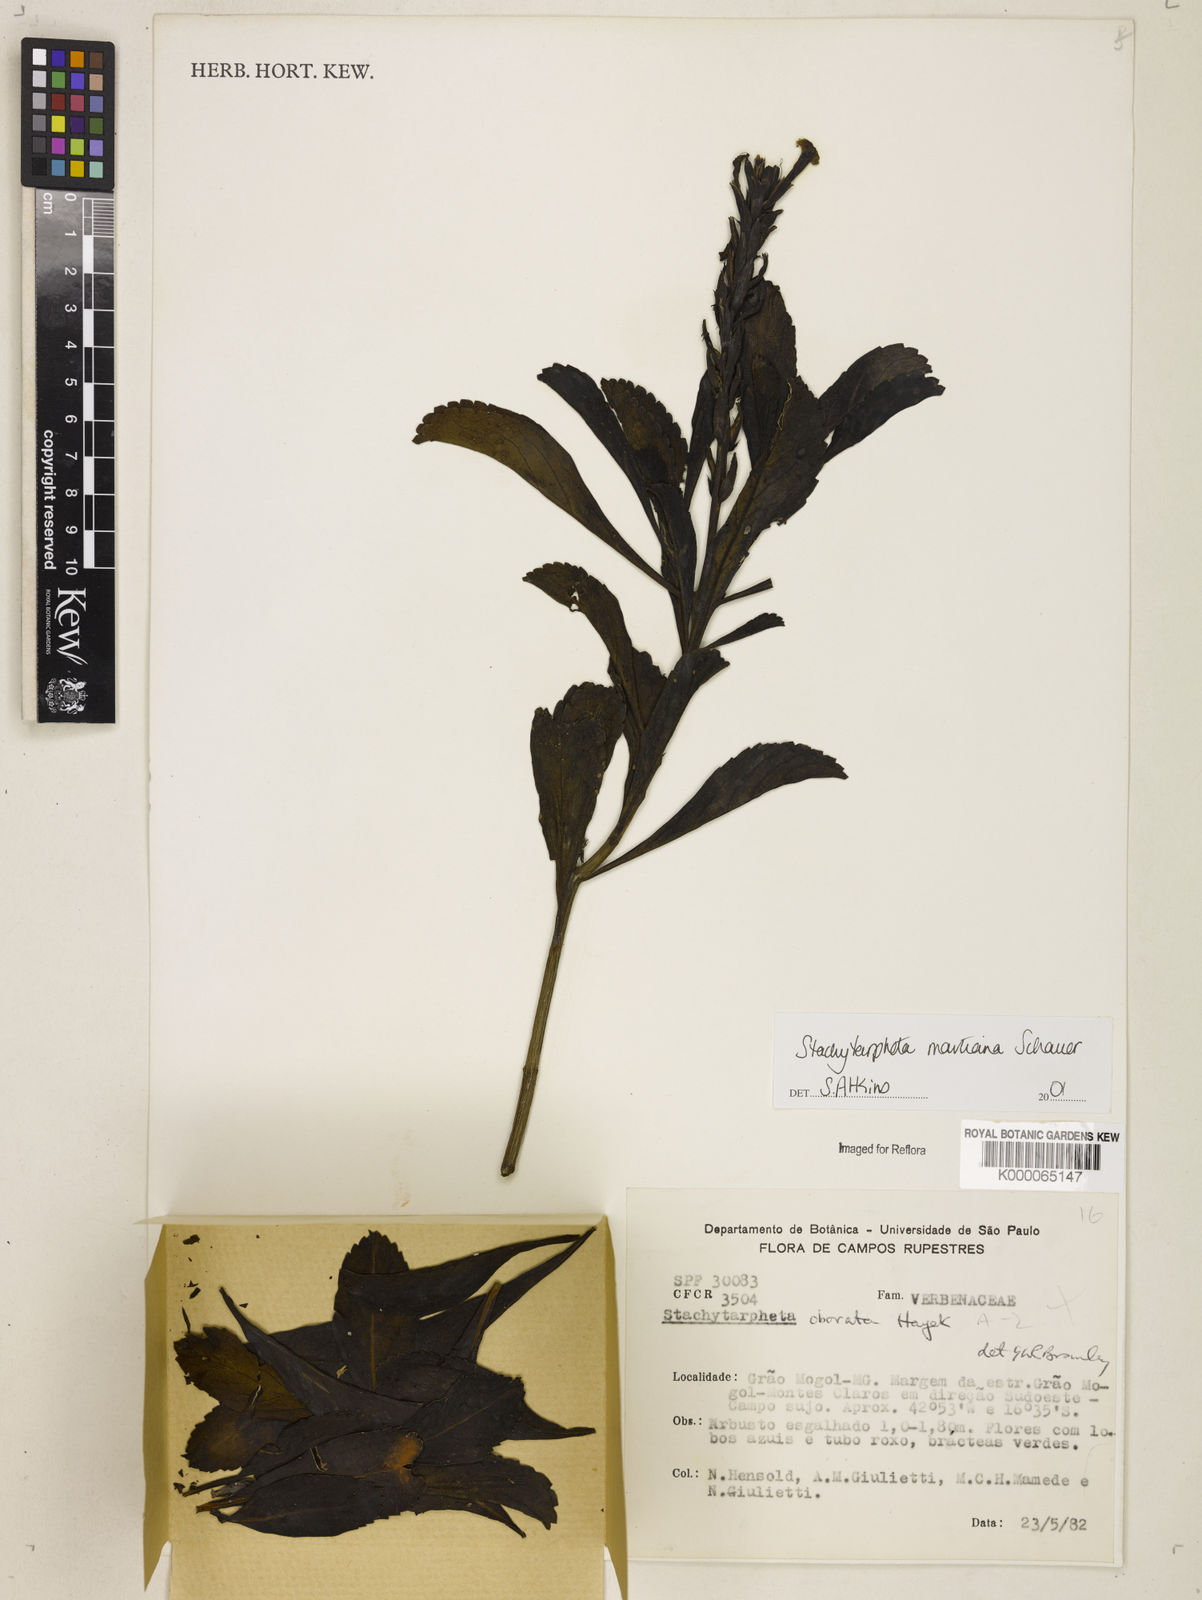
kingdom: Plantae
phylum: Tracheophyta
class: Magnoliopsida
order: Lamiales
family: Verbenaceae
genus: Stachytarpheta
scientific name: Stachytarpheta martiana
